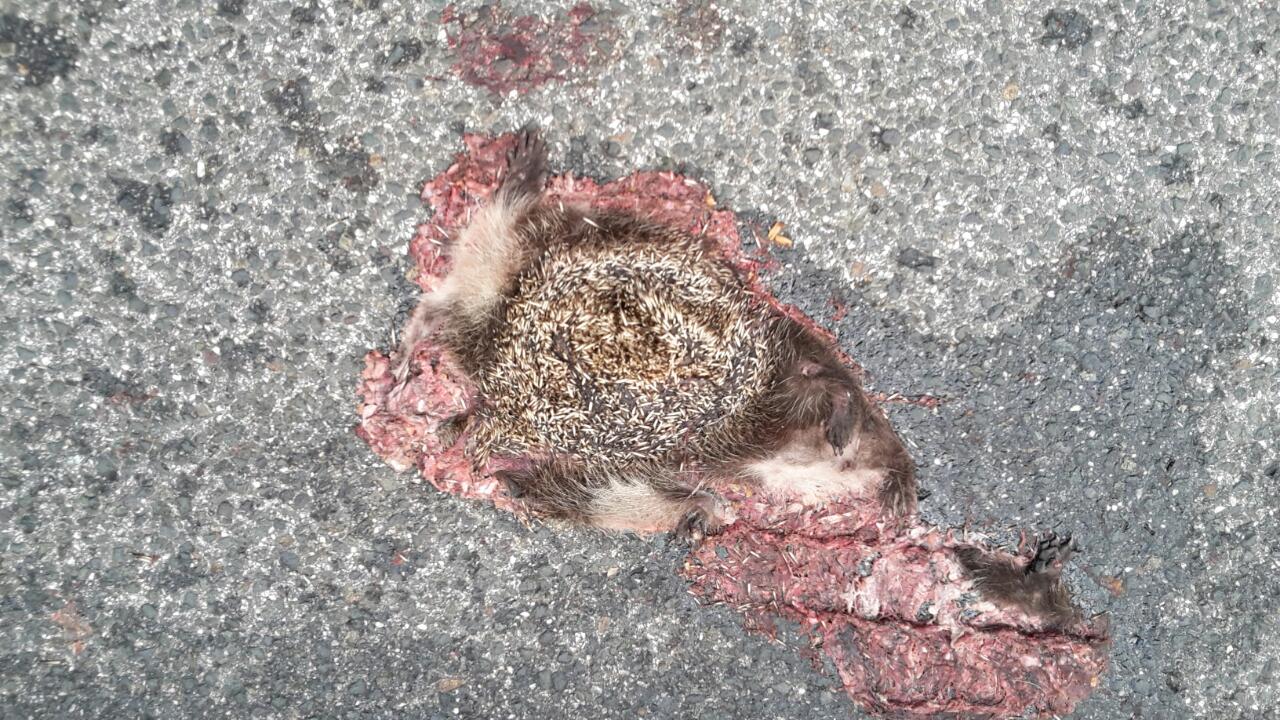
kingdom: Animalia
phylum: Chordata
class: Mammalia
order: Erinaceomorpha
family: Erinaceidae
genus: Erinaceus
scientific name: Erinaceus
